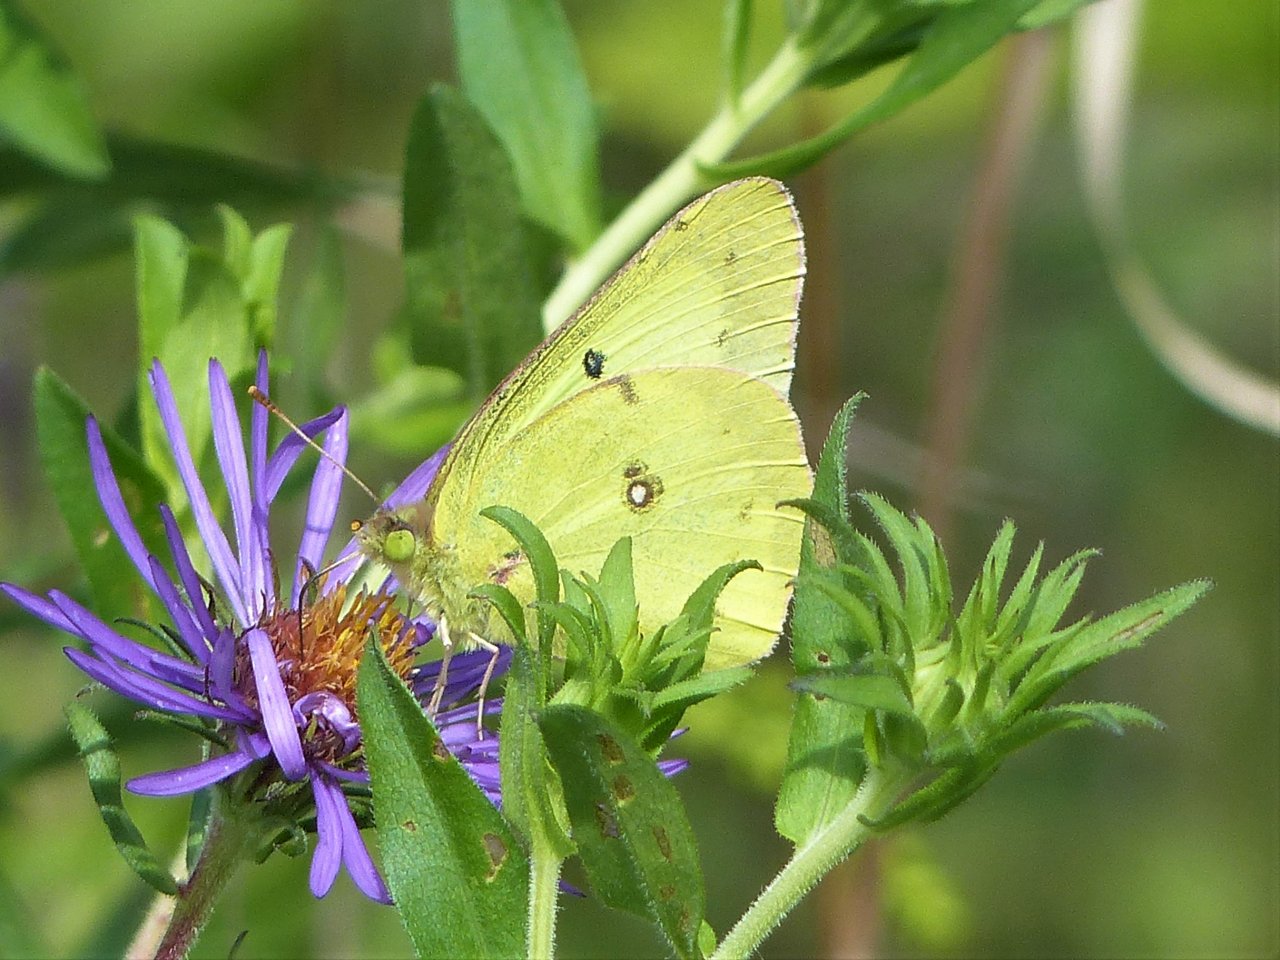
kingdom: Animalia
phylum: Arthropoda
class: Insecta
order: Lepidoptera
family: Pieridae
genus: Colias
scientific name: Colias philodice
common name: Clouded Sulphur
